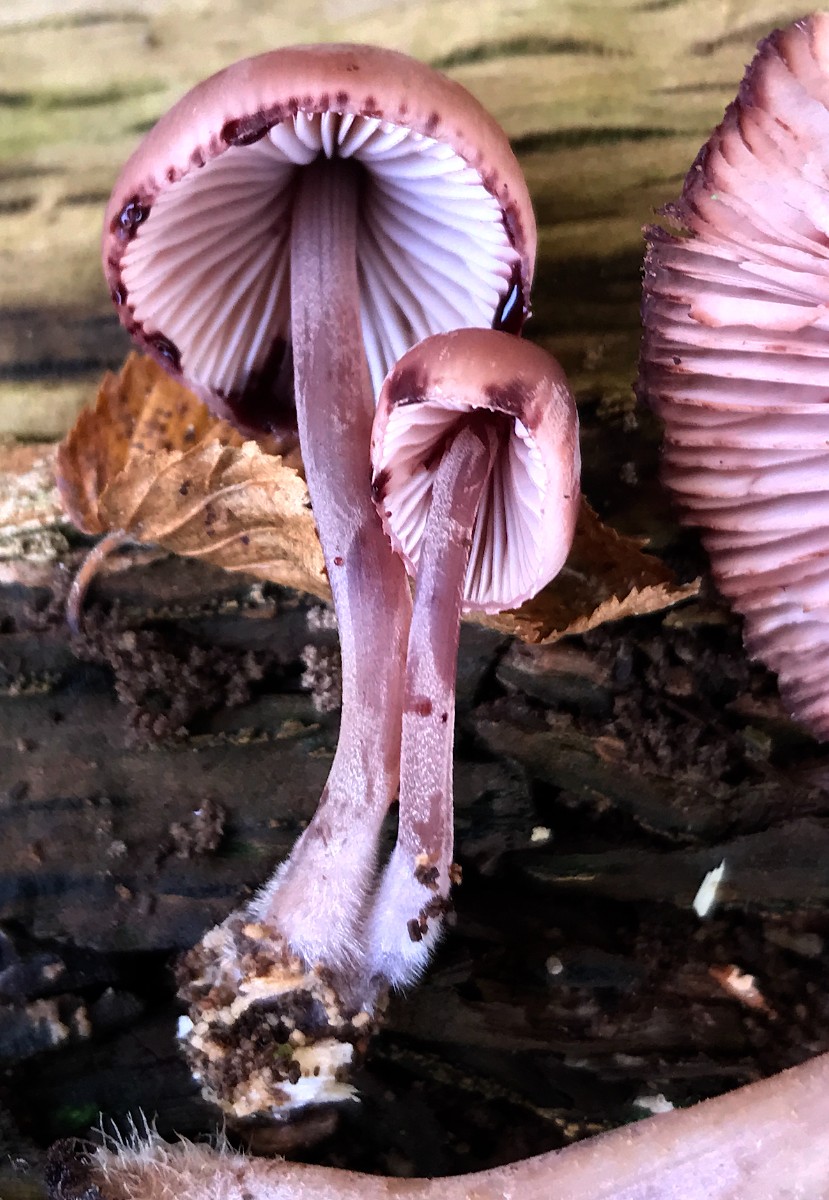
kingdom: Fungi
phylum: Basidiomycota
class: Agaricomycetes
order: Agaricales
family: Mycenaceae
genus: Mycena
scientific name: Mycena haematopus
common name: blødende huesvamp
